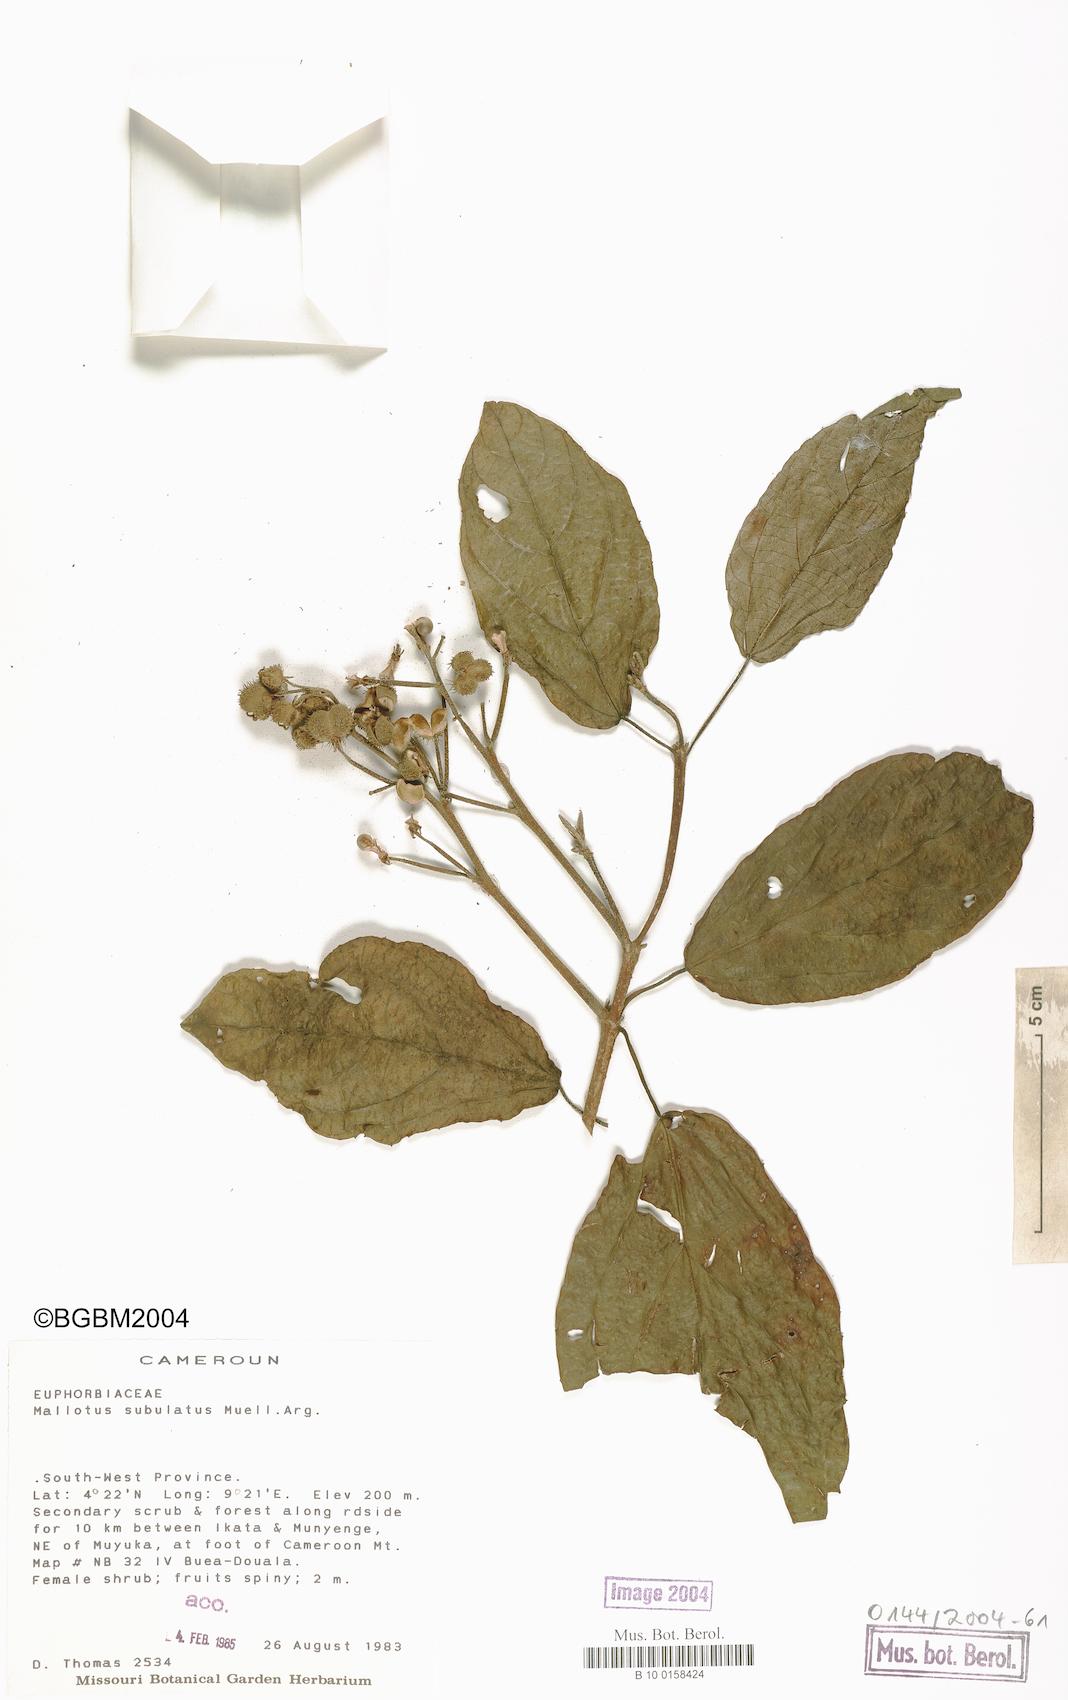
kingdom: Plantae
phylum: Tracheophyta
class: Magnoliopsida
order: Malpighiales
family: Euphorbiaceae
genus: Mallotus
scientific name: Mallotus subulatus
